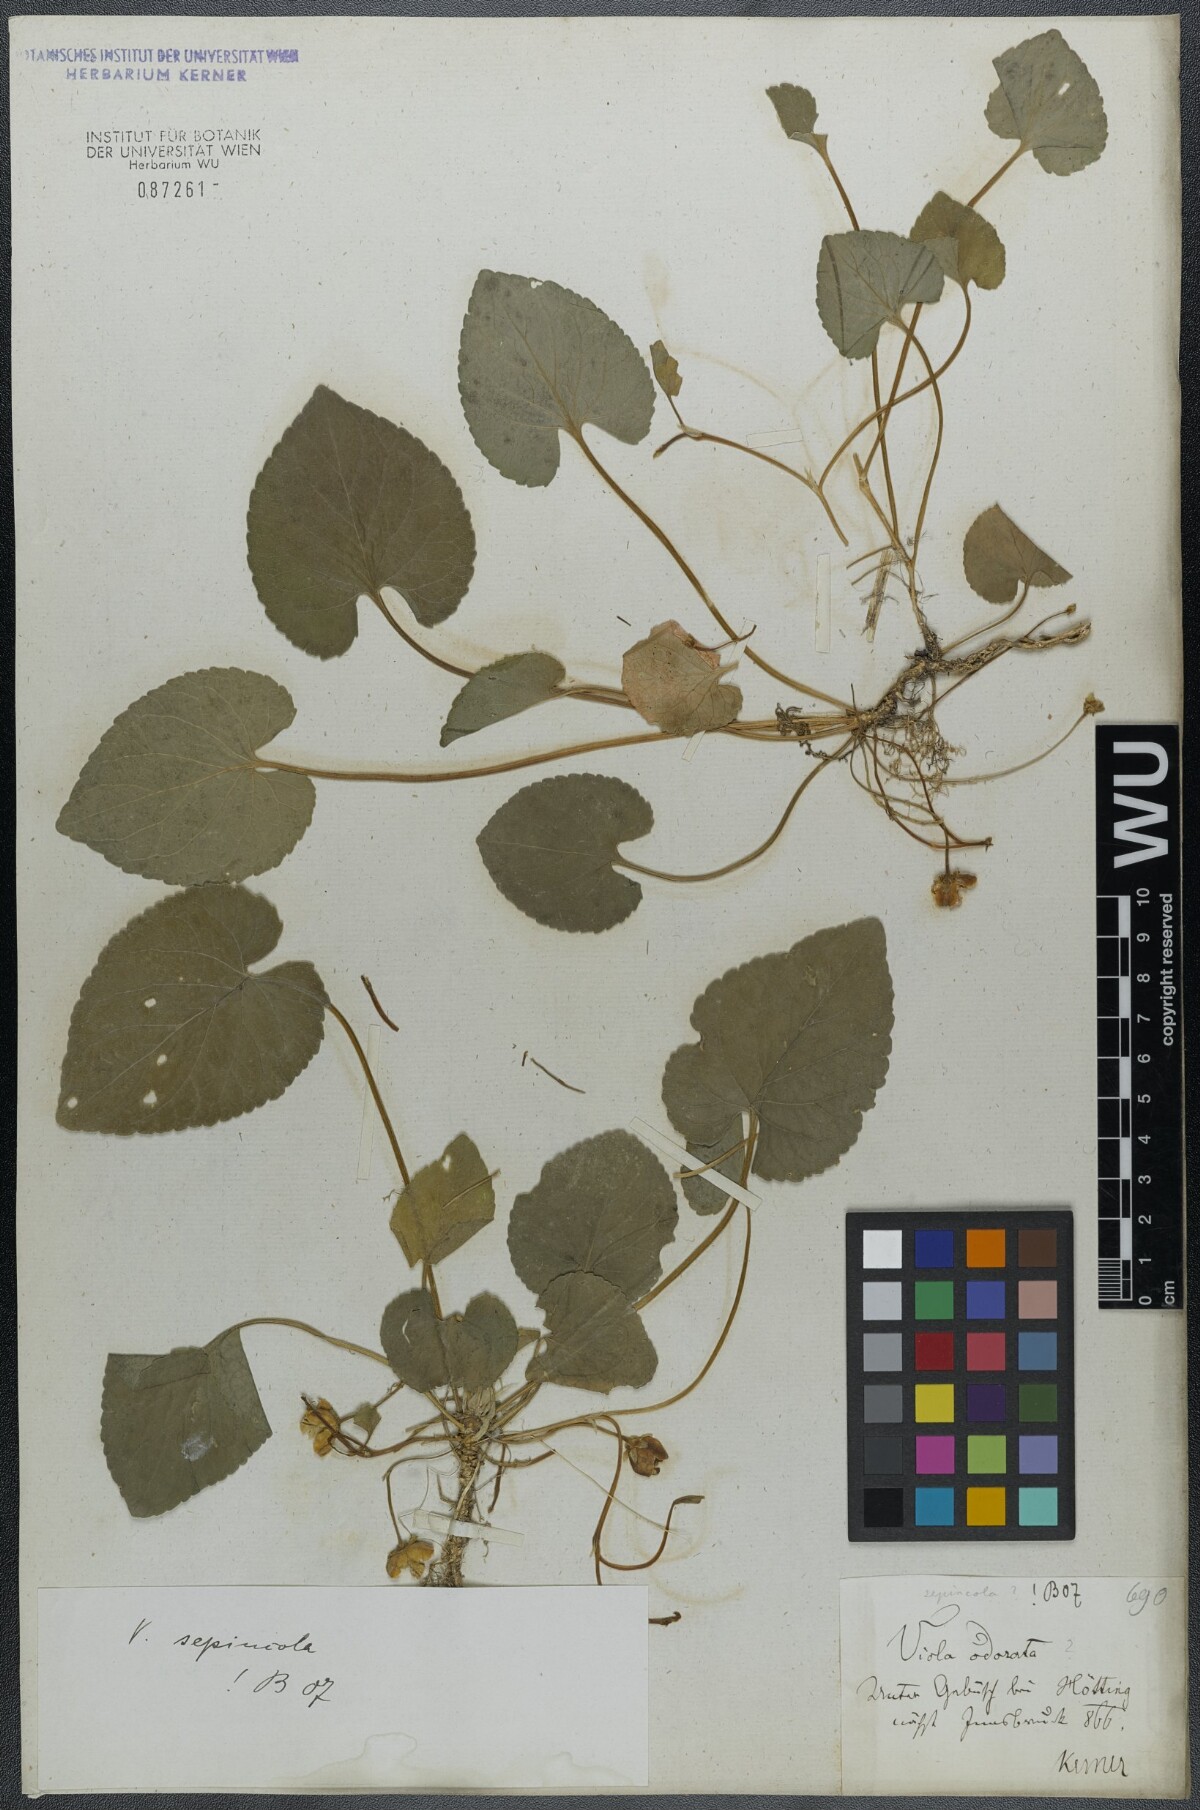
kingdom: Plantae
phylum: Tracheophyta
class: Magnoliopsida
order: Malpighiales
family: Violaceae
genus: Viola
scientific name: Viola suavis
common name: Russian violet
